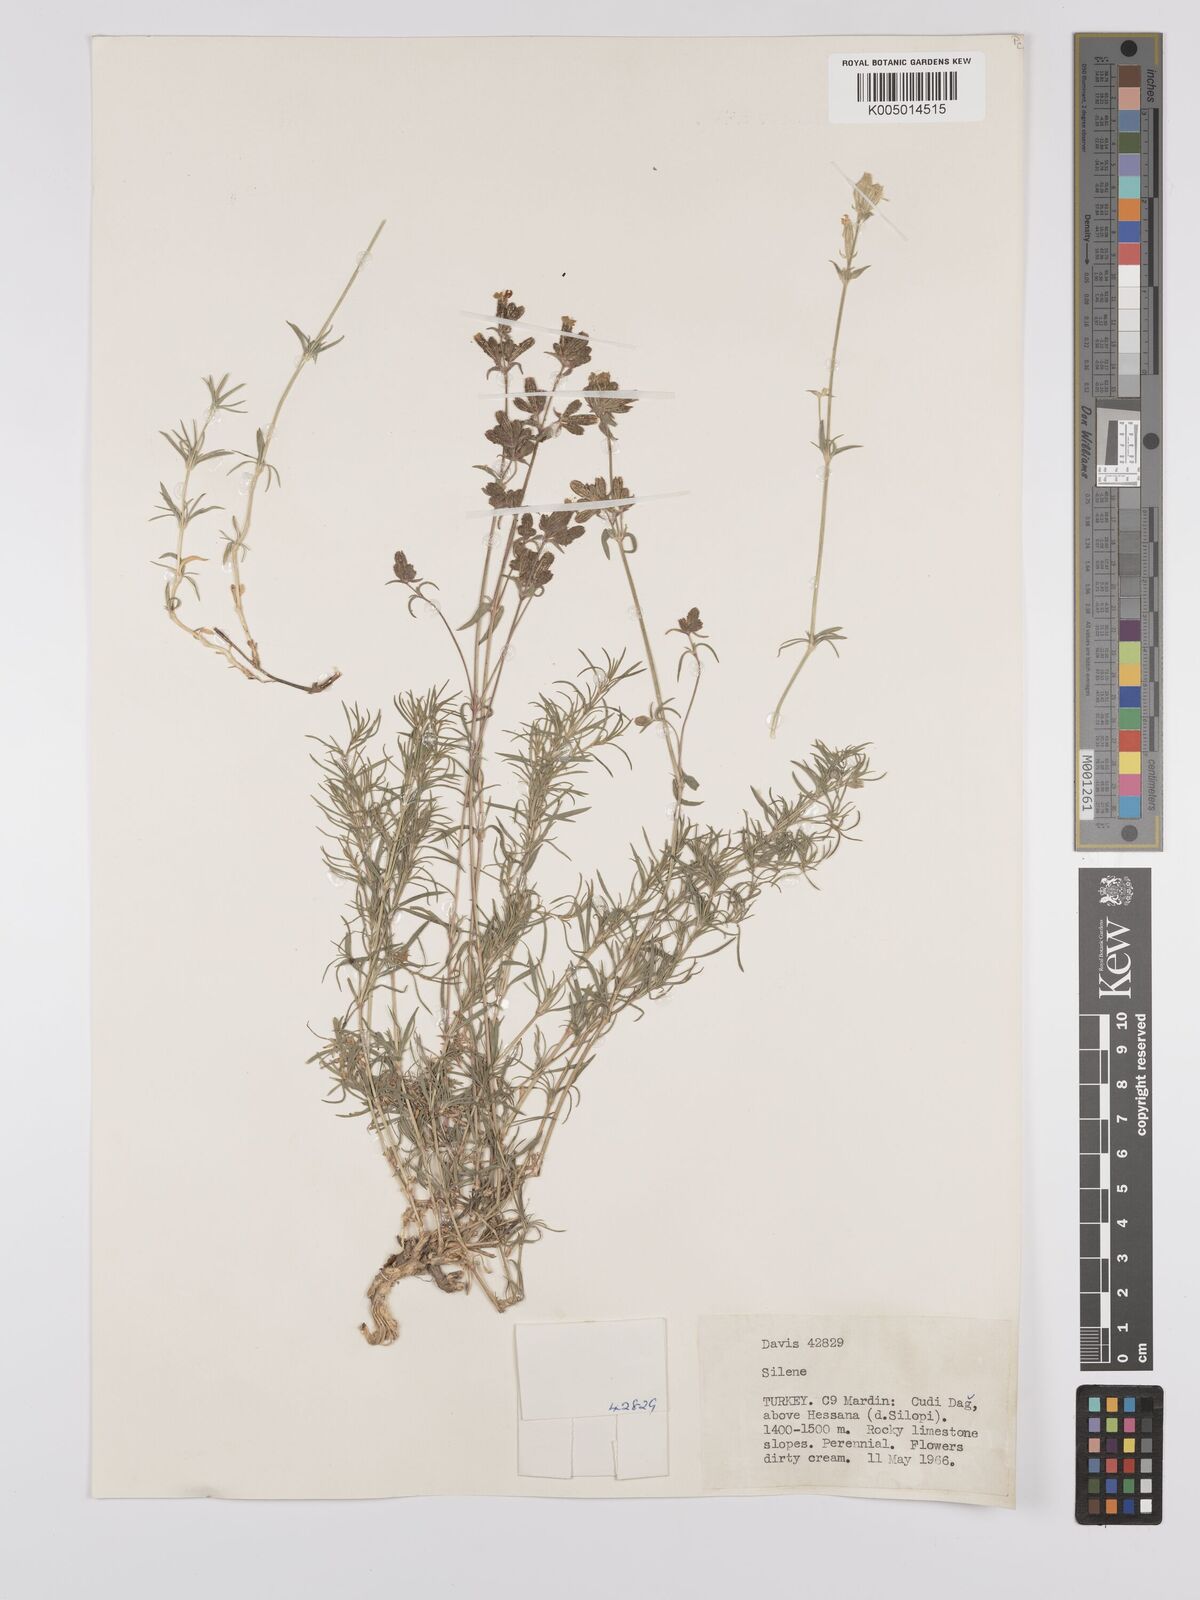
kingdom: Plantae
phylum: Tracheophyta
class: Magnoliopsida
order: Caryophyllales
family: Caryophyllaceae
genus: Silene
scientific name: Silene
